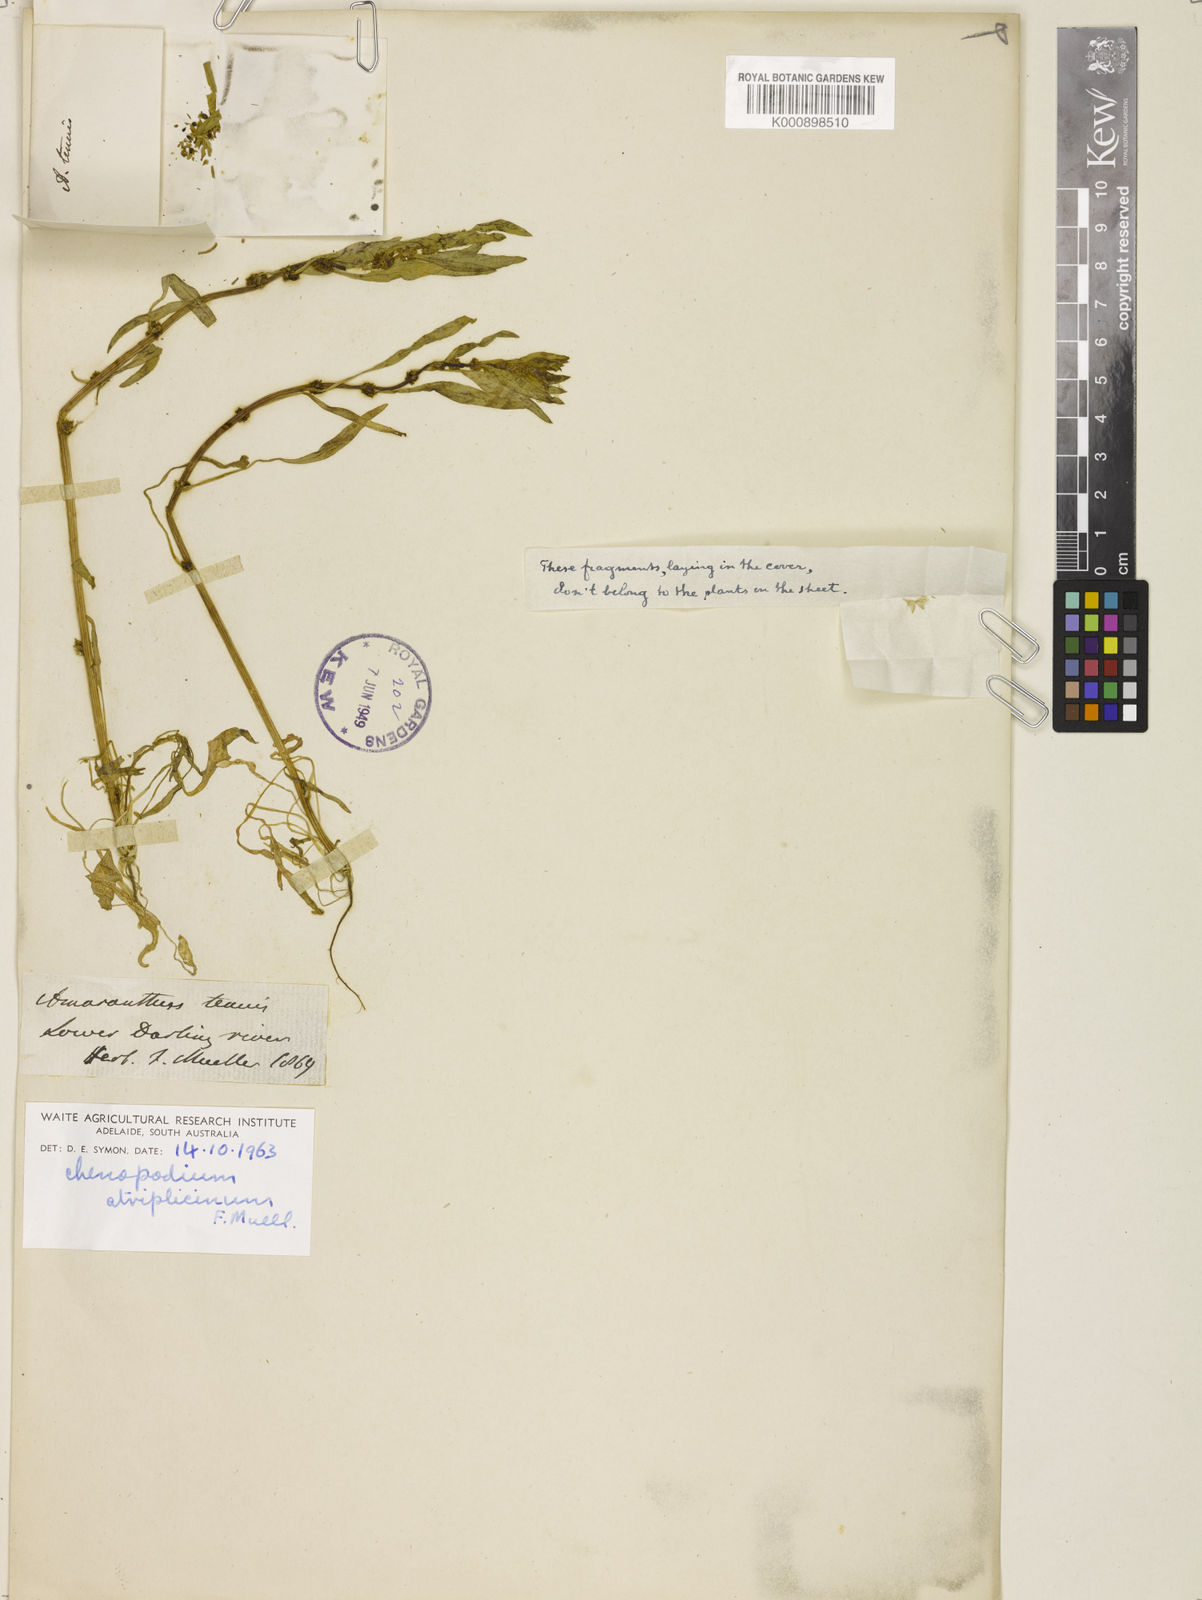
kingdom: Plantae
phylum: Tracheophyta
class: Magnoliopsida
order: Caryophyllales
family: Amaranthaceae
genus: Blitum
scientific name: Blitum atriplicinum
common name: Starry-goosefoot
